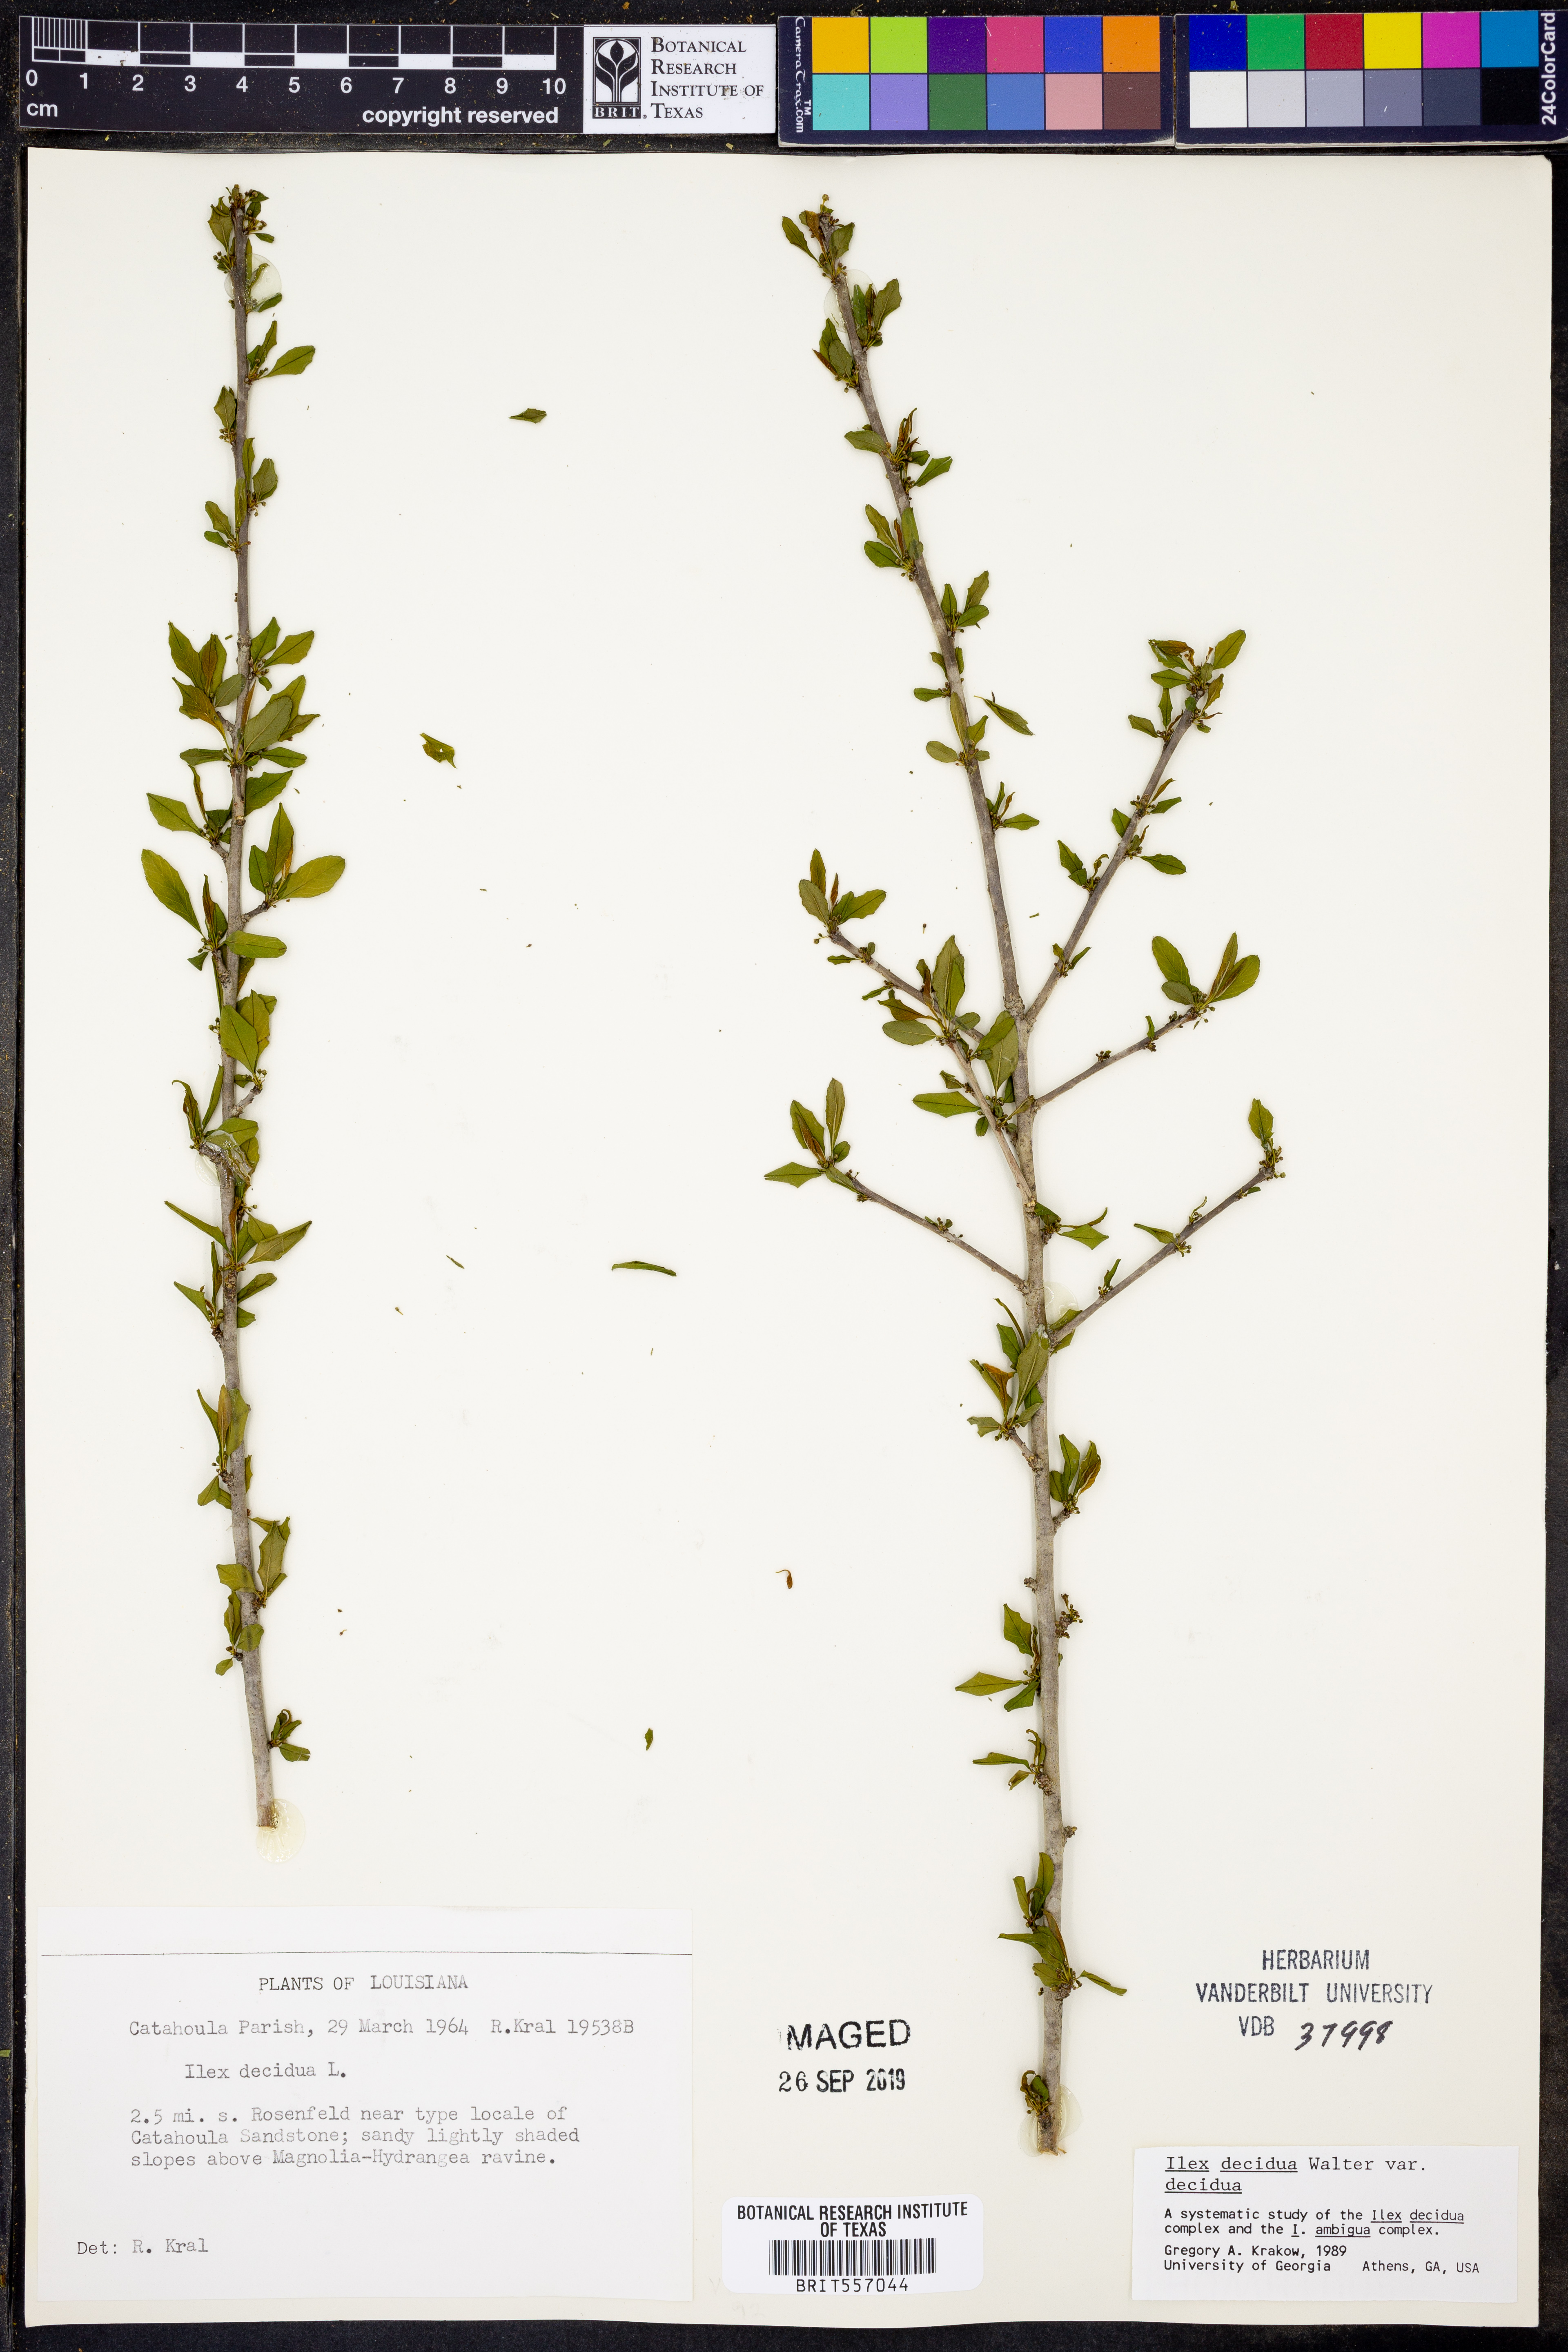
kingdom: Plantae
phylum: Tracheophyta
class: Magnoliopsida
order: Aquifoliales
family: Aquifoliaceae
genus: Ilex
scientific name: Ilex decidua
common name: Possum-haw
